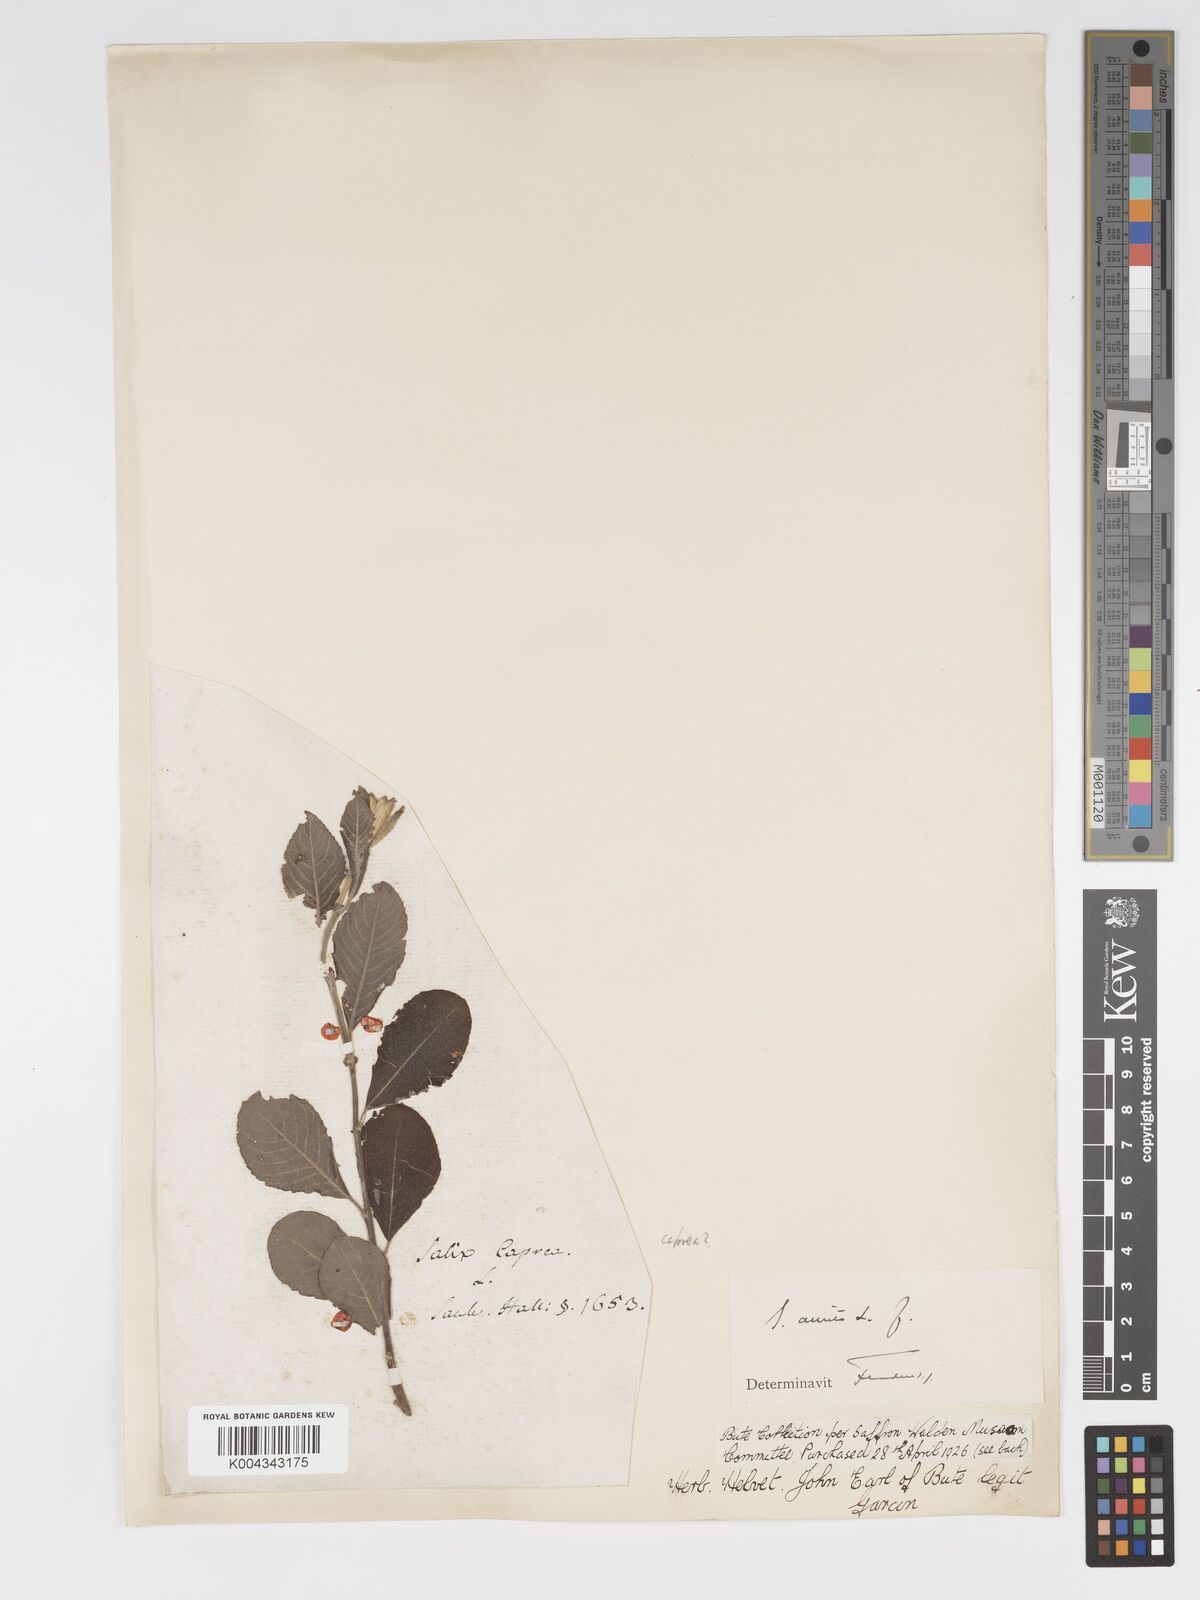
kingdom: Plantae
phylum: Tracheophyta
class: Magnoliopsida
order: Malpighiales
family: Salicaceae
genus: Salix
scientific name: Salix aurita
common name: Eared willow
